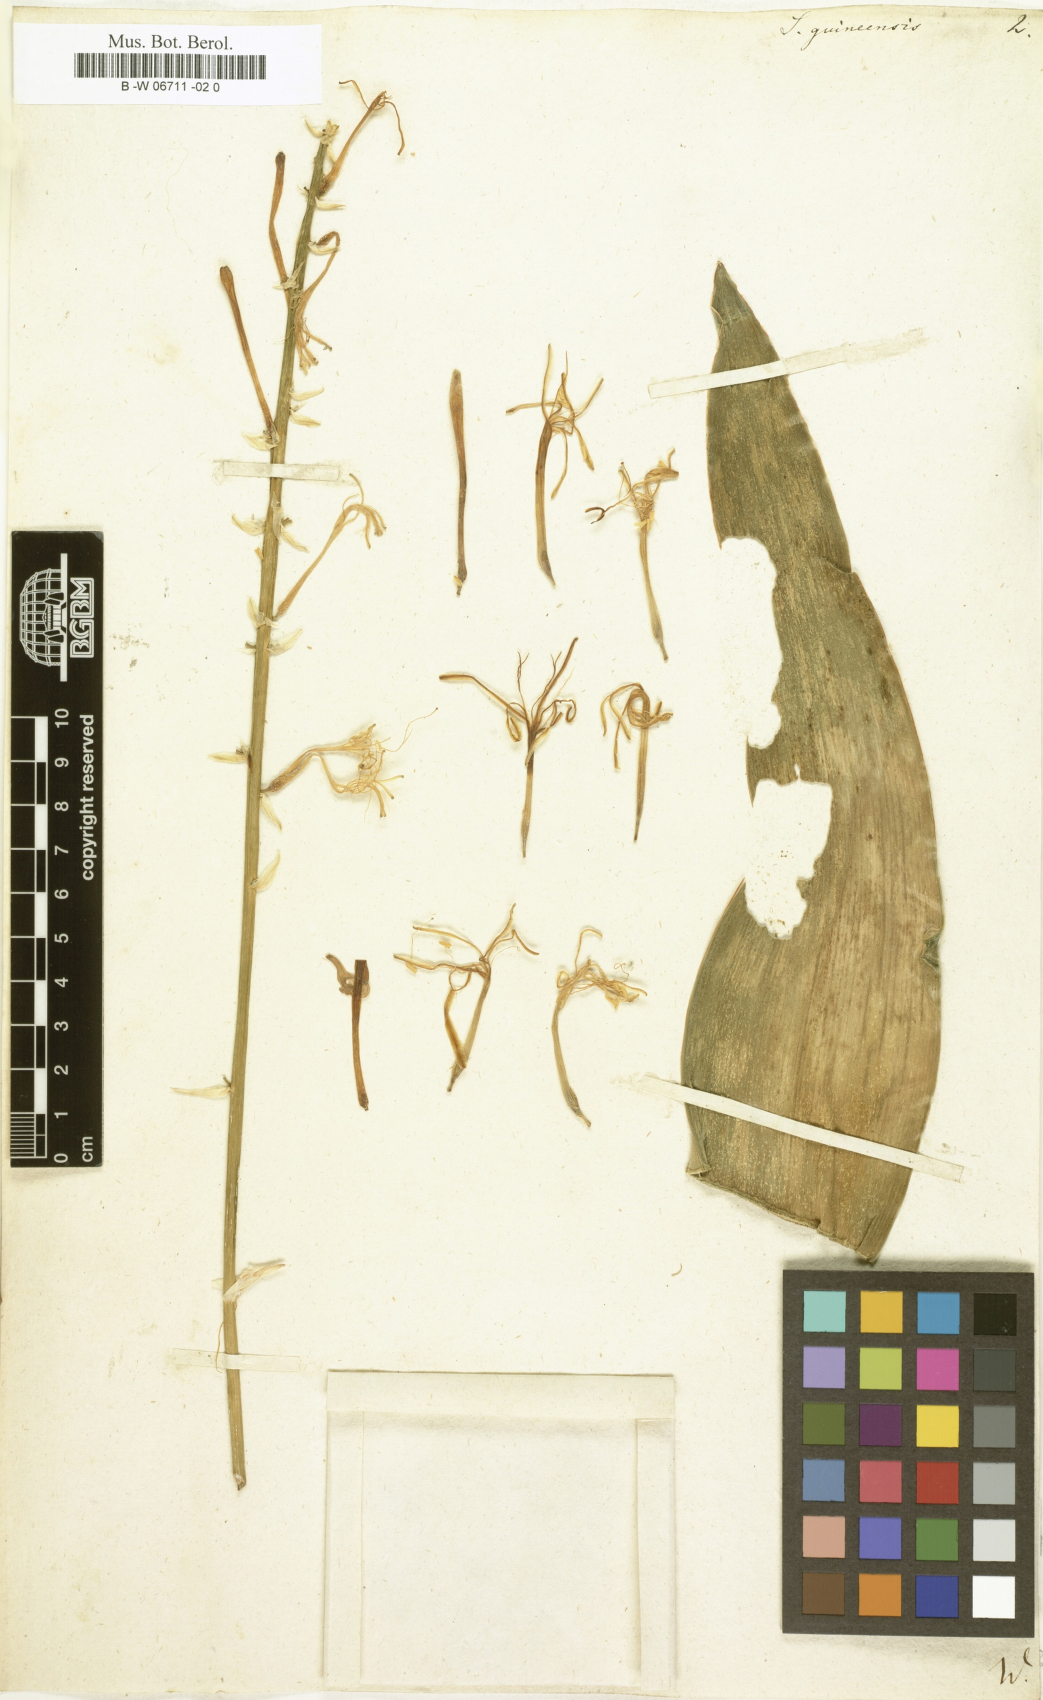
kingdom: Plantae
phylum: Tracheophyta
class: Liliopsida
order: Asparagales
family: Asparagaceae
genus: Dracaena
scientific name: Dracaena hyacinthoides
